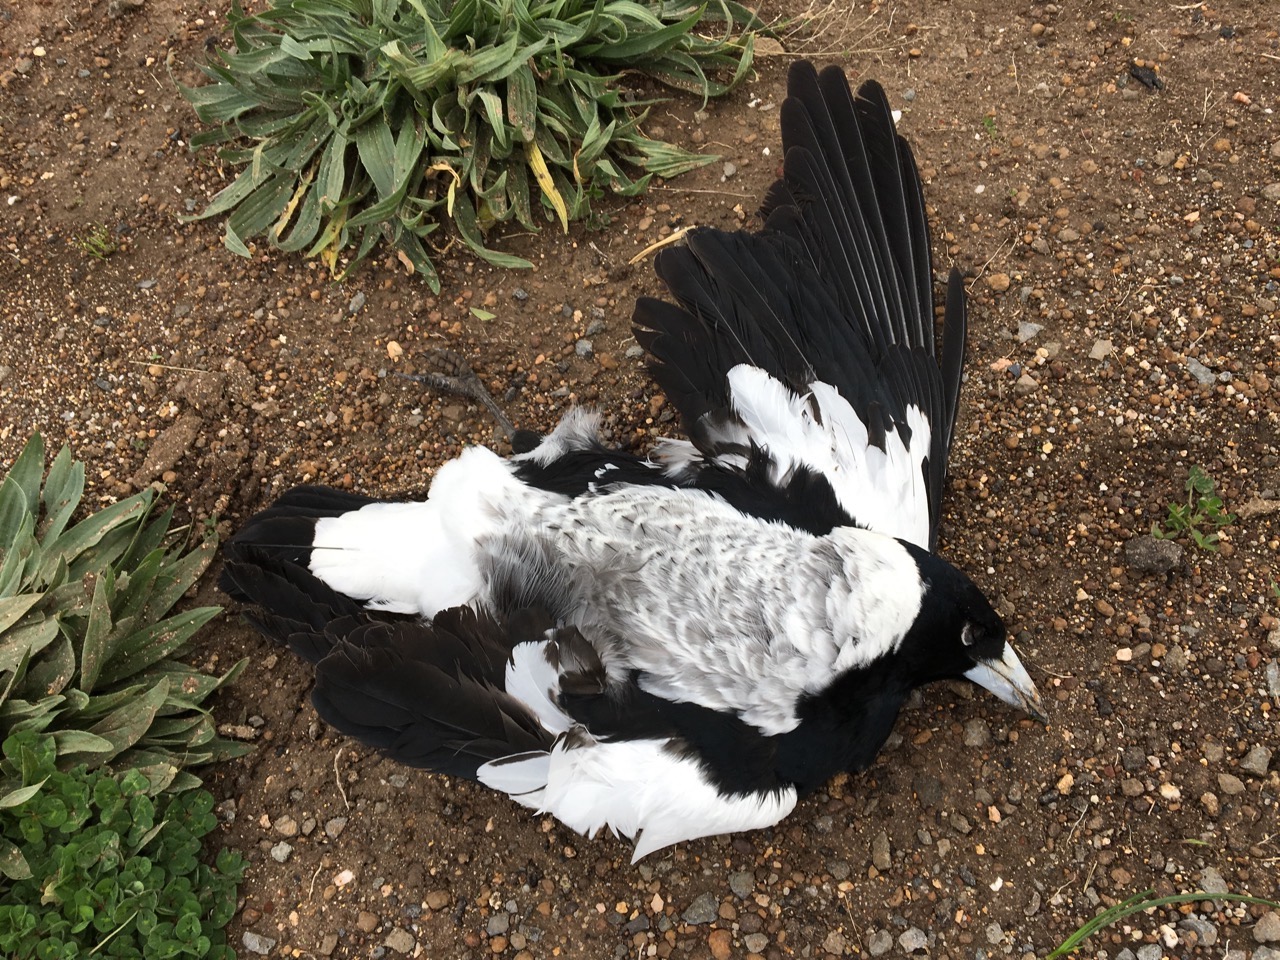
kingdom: Animalia
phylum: Chordata
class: Aves
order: Passeriformes
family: Cracticidae
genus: Gymnorhina
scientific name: Gymnorhina tibicen
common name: Australian magpie
